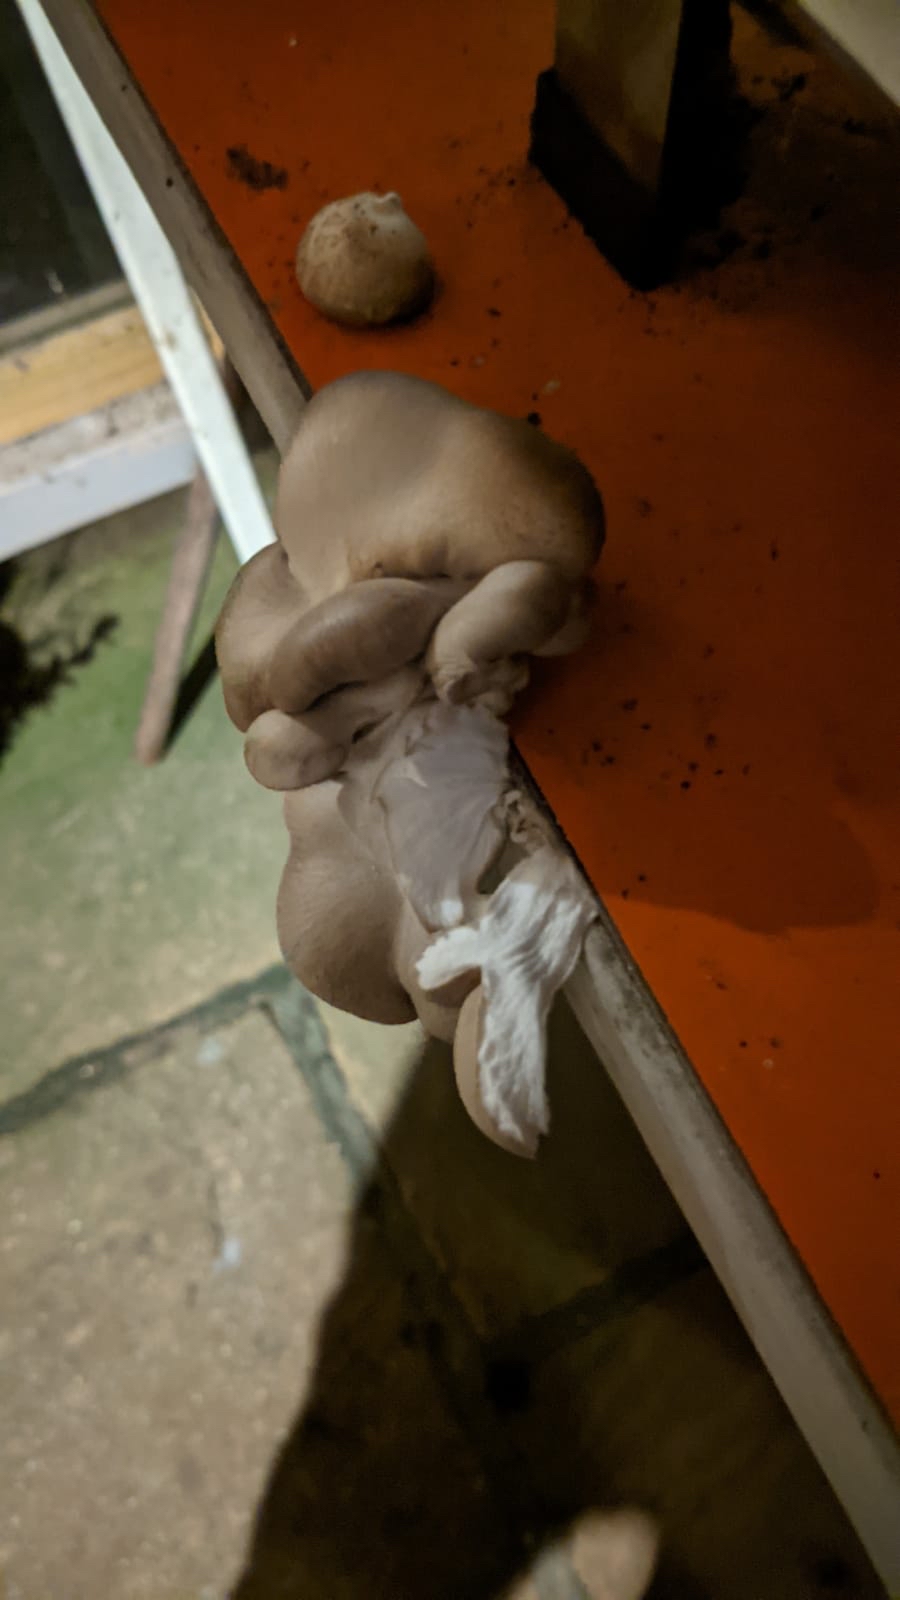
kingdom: Fungi
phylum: Basidiomycota
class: Agaricomycetes
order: Agaricales
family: Pleurotaceae
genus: Pleurotus
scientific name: Pleurotus ostreatus
